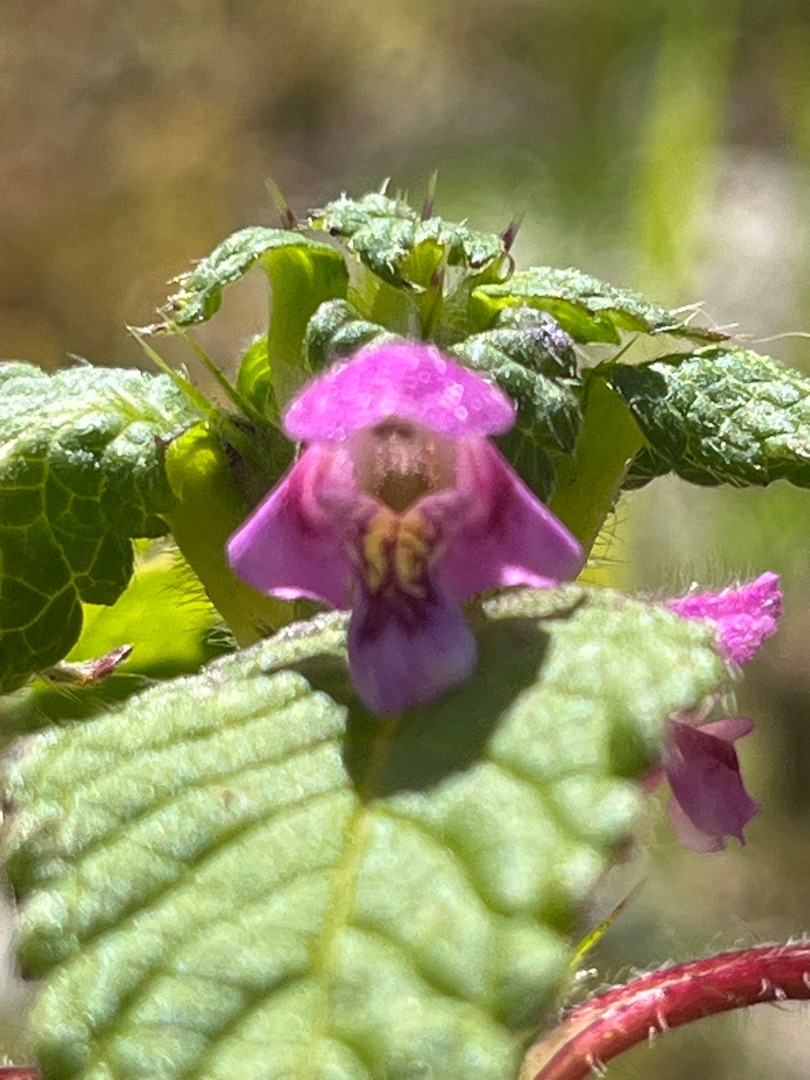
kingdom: Plantae
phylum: Tracheophyta
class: Magnoliopsida
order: Lamiales
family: Lamiaceae
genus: Galeopsis
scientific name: Galeopsis tetrahit
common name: Almindelig hanekro
